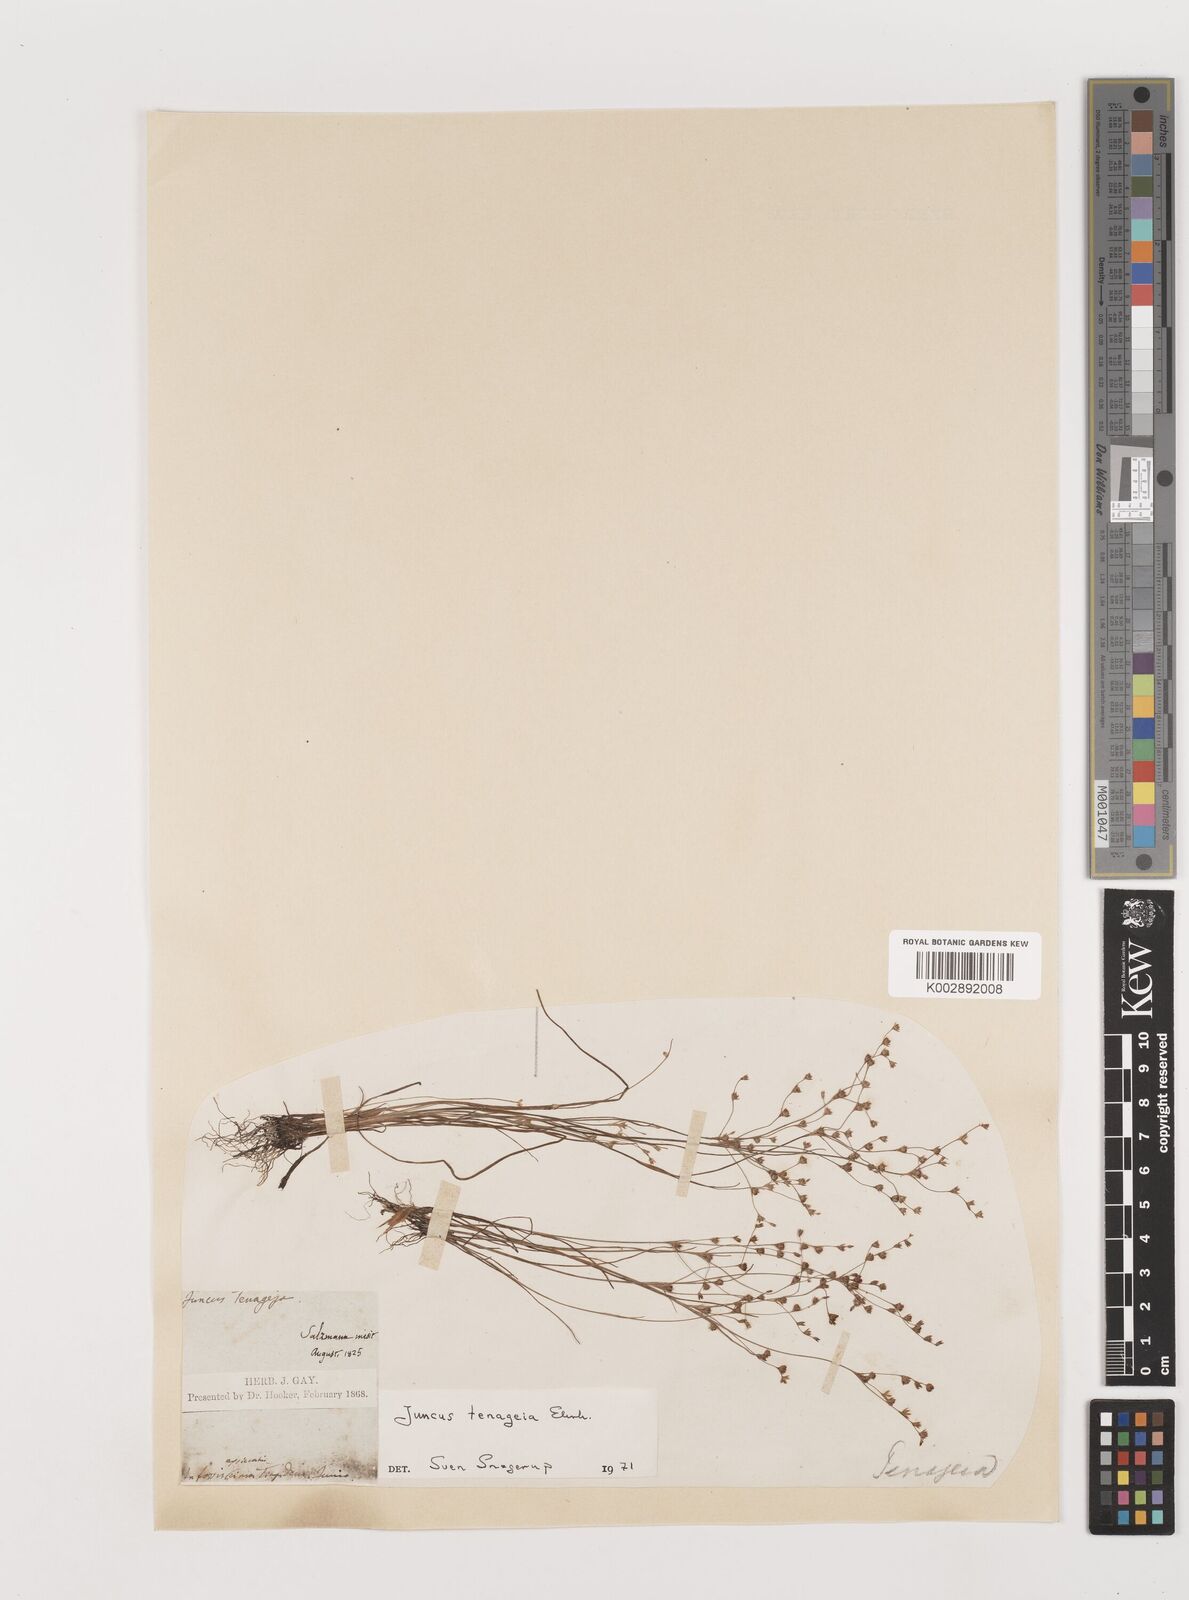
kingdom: Plantae
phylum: Tracheophyta
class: Liliopsida
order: Poales
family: Juncaceae
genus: Juncus
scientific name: Juncus tenageia
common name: Sand rush
